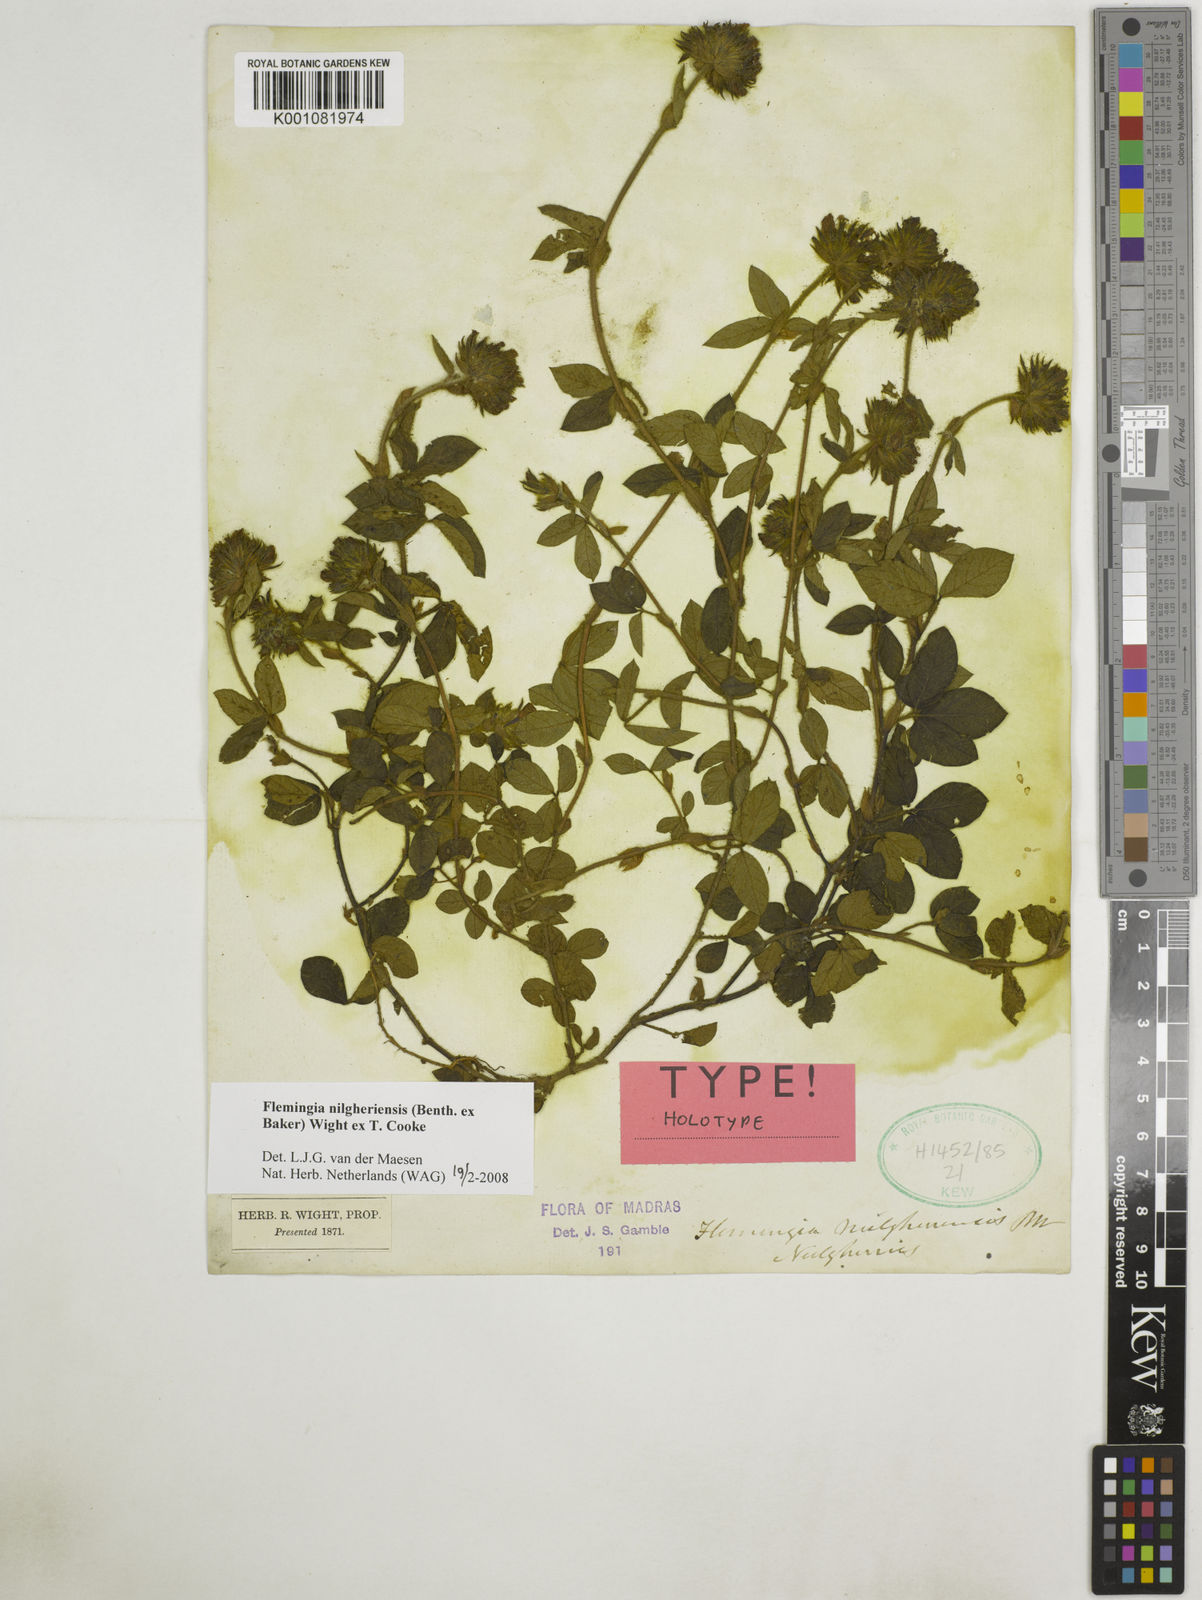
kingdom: Plantae
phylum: Tracheophyta
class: Magnoliopsida
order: Fabales
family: Fabaceae
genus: Flemingia
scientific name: Flemingia nilgheriensis
